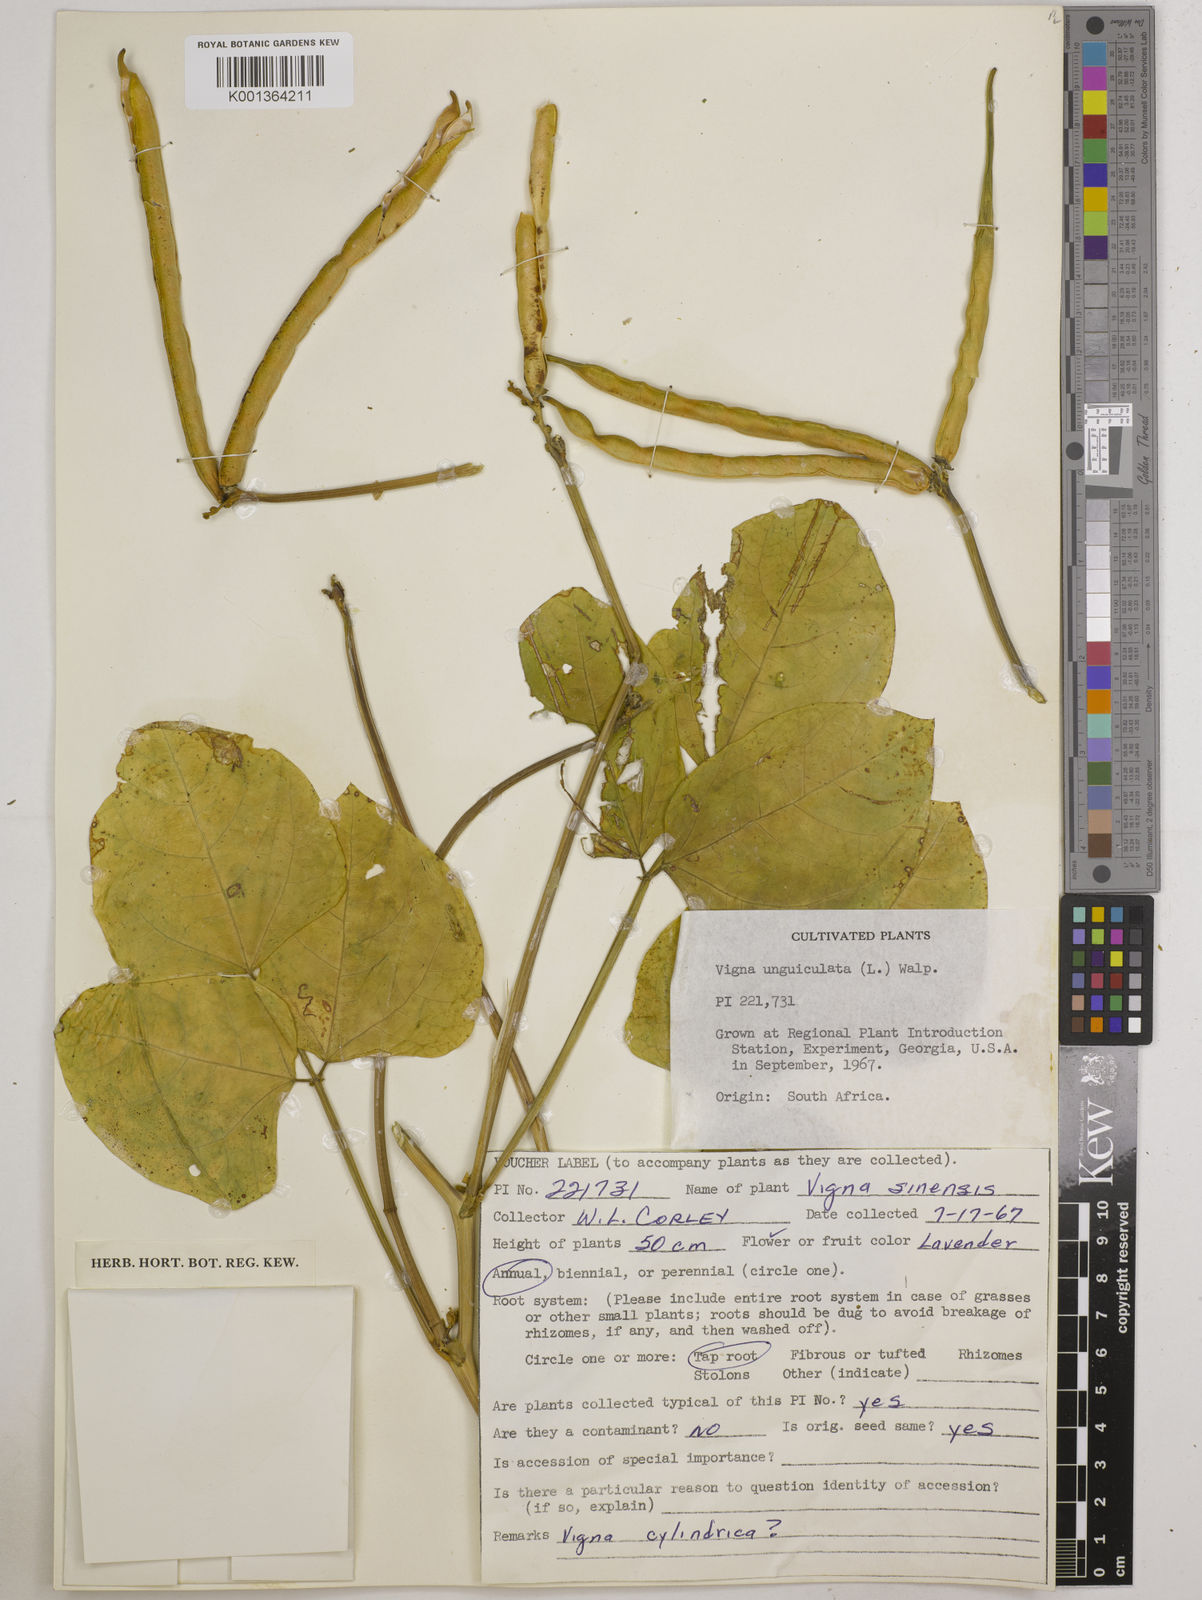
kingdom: Plantae
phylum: Tracheophyta
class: Magnoliopsida
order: Fabales
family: Fabaceae
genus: Vigna
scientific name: Vigna
